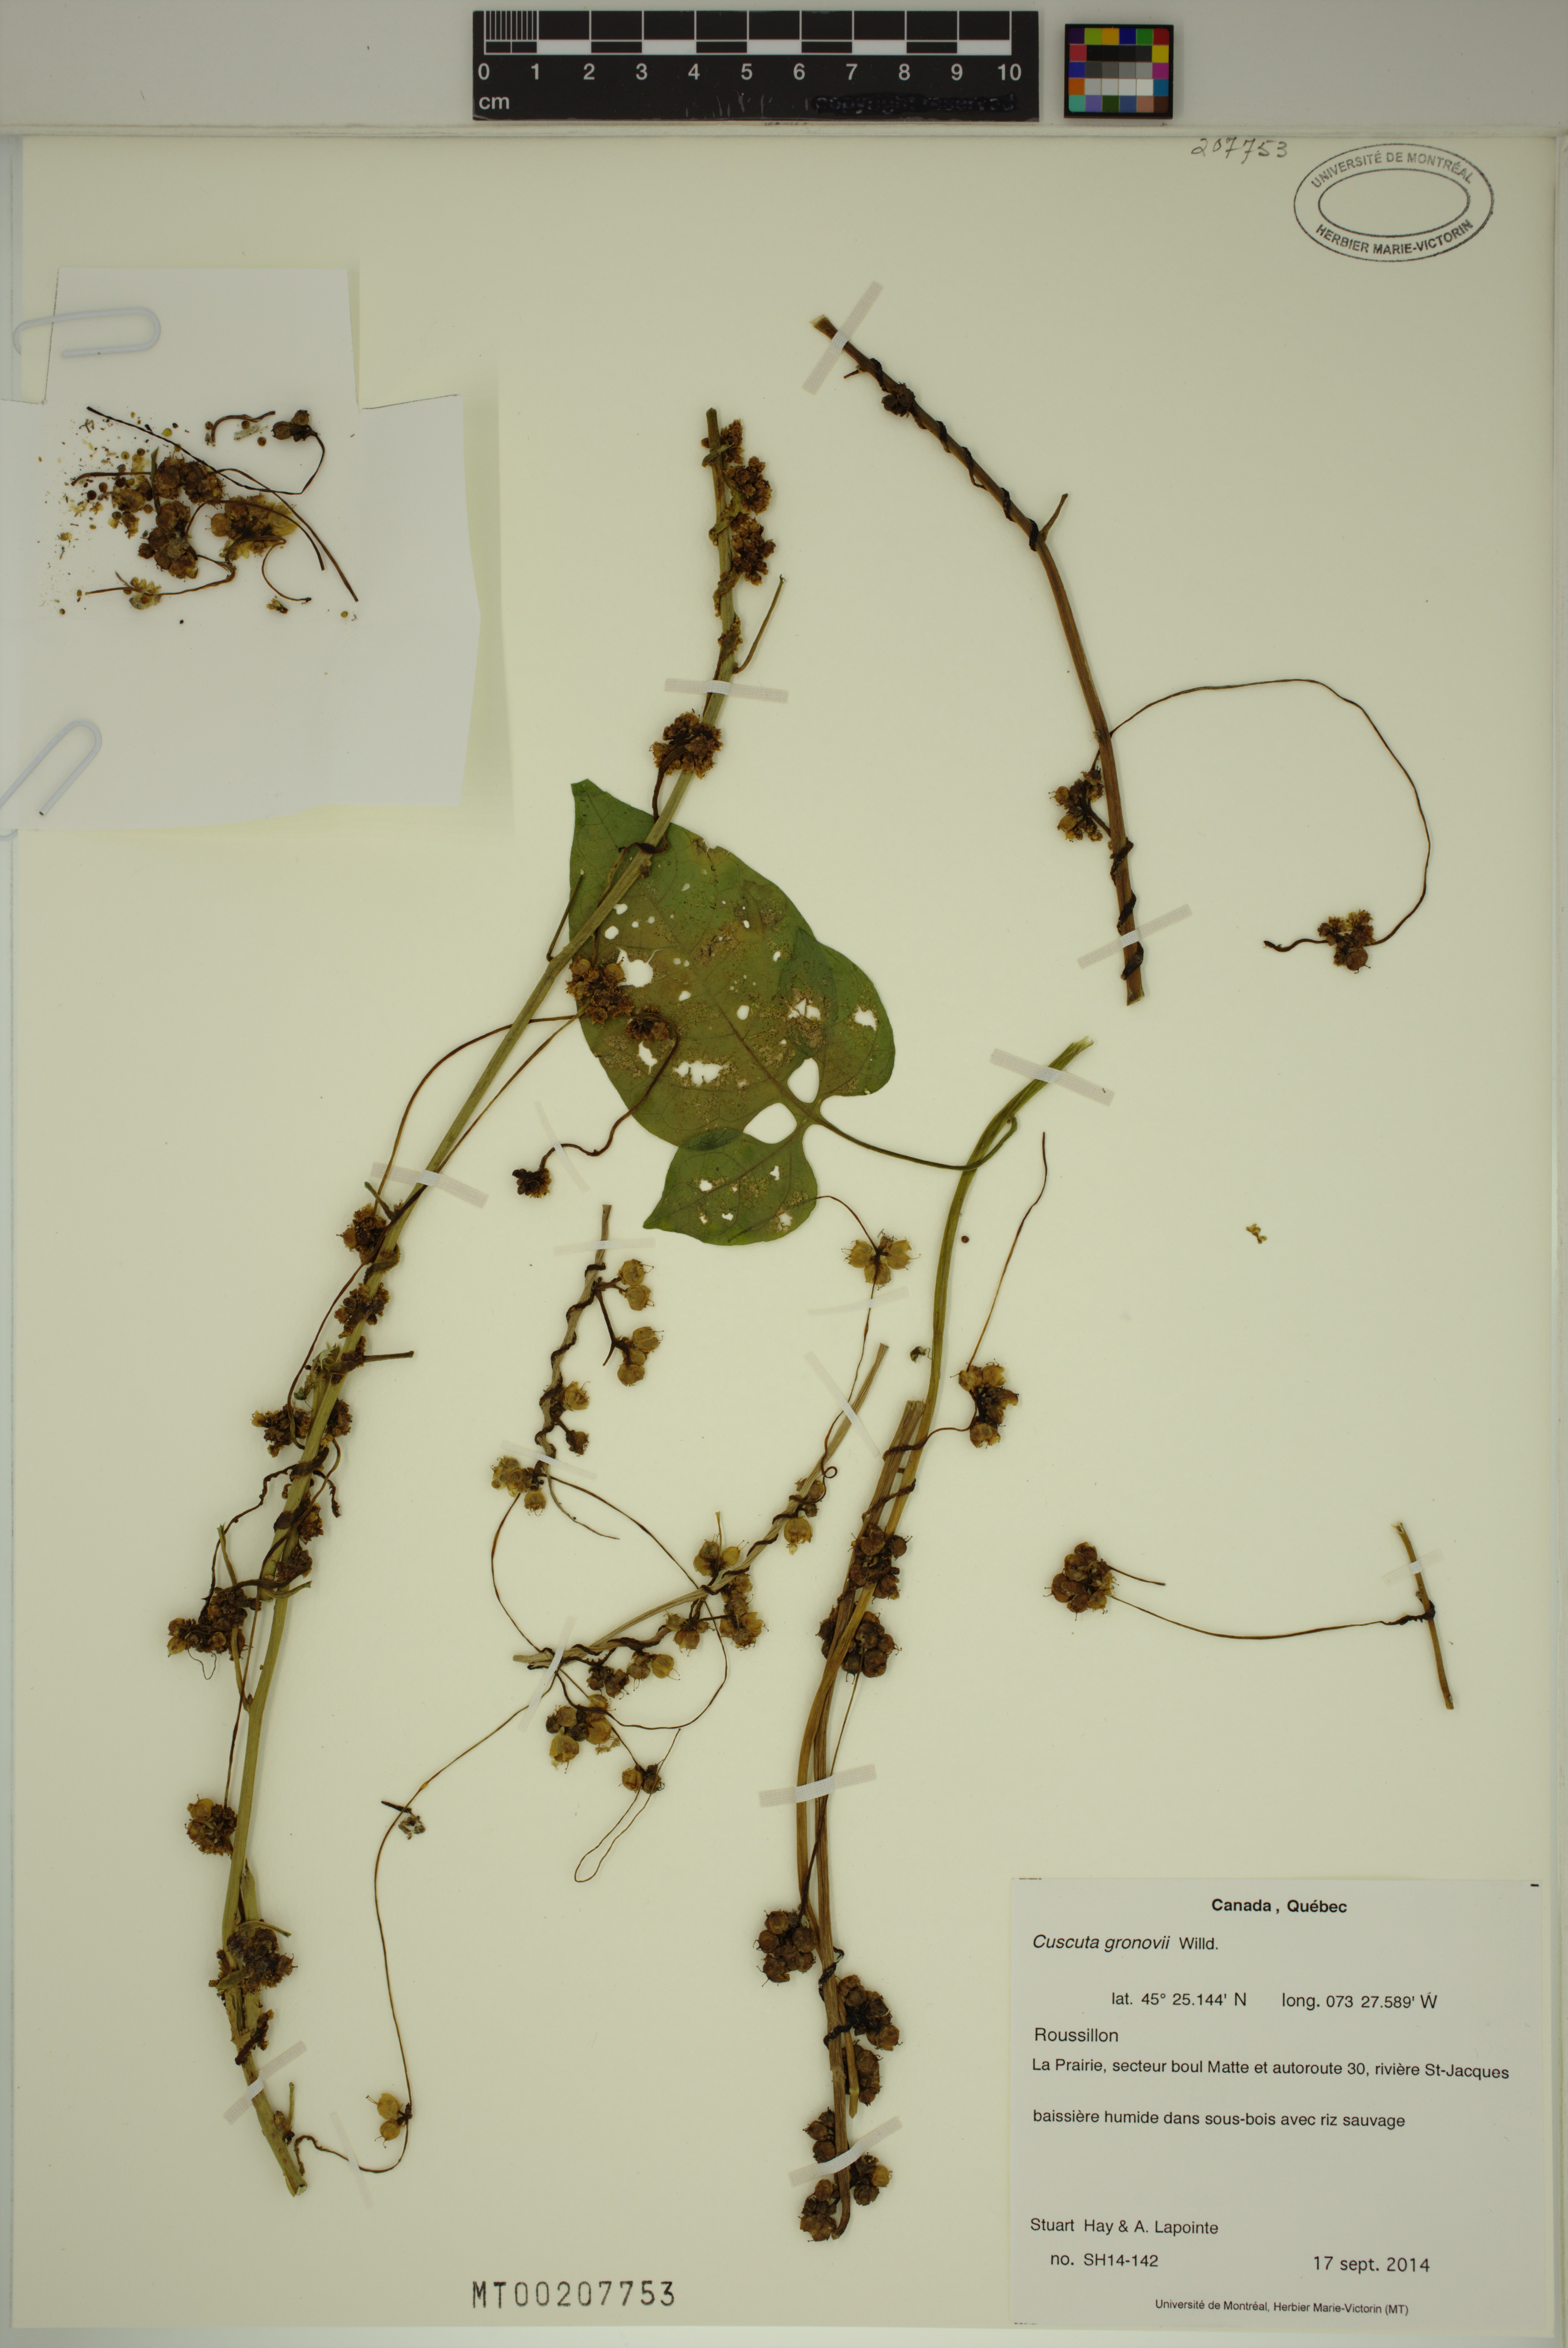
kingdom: Plantae
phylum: Tracheophyta
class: Magnoliopsida
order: Solanales
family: Convolvulaceae
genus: Cuscuta
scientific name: Cuscuta gronovii
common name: Common dodder
